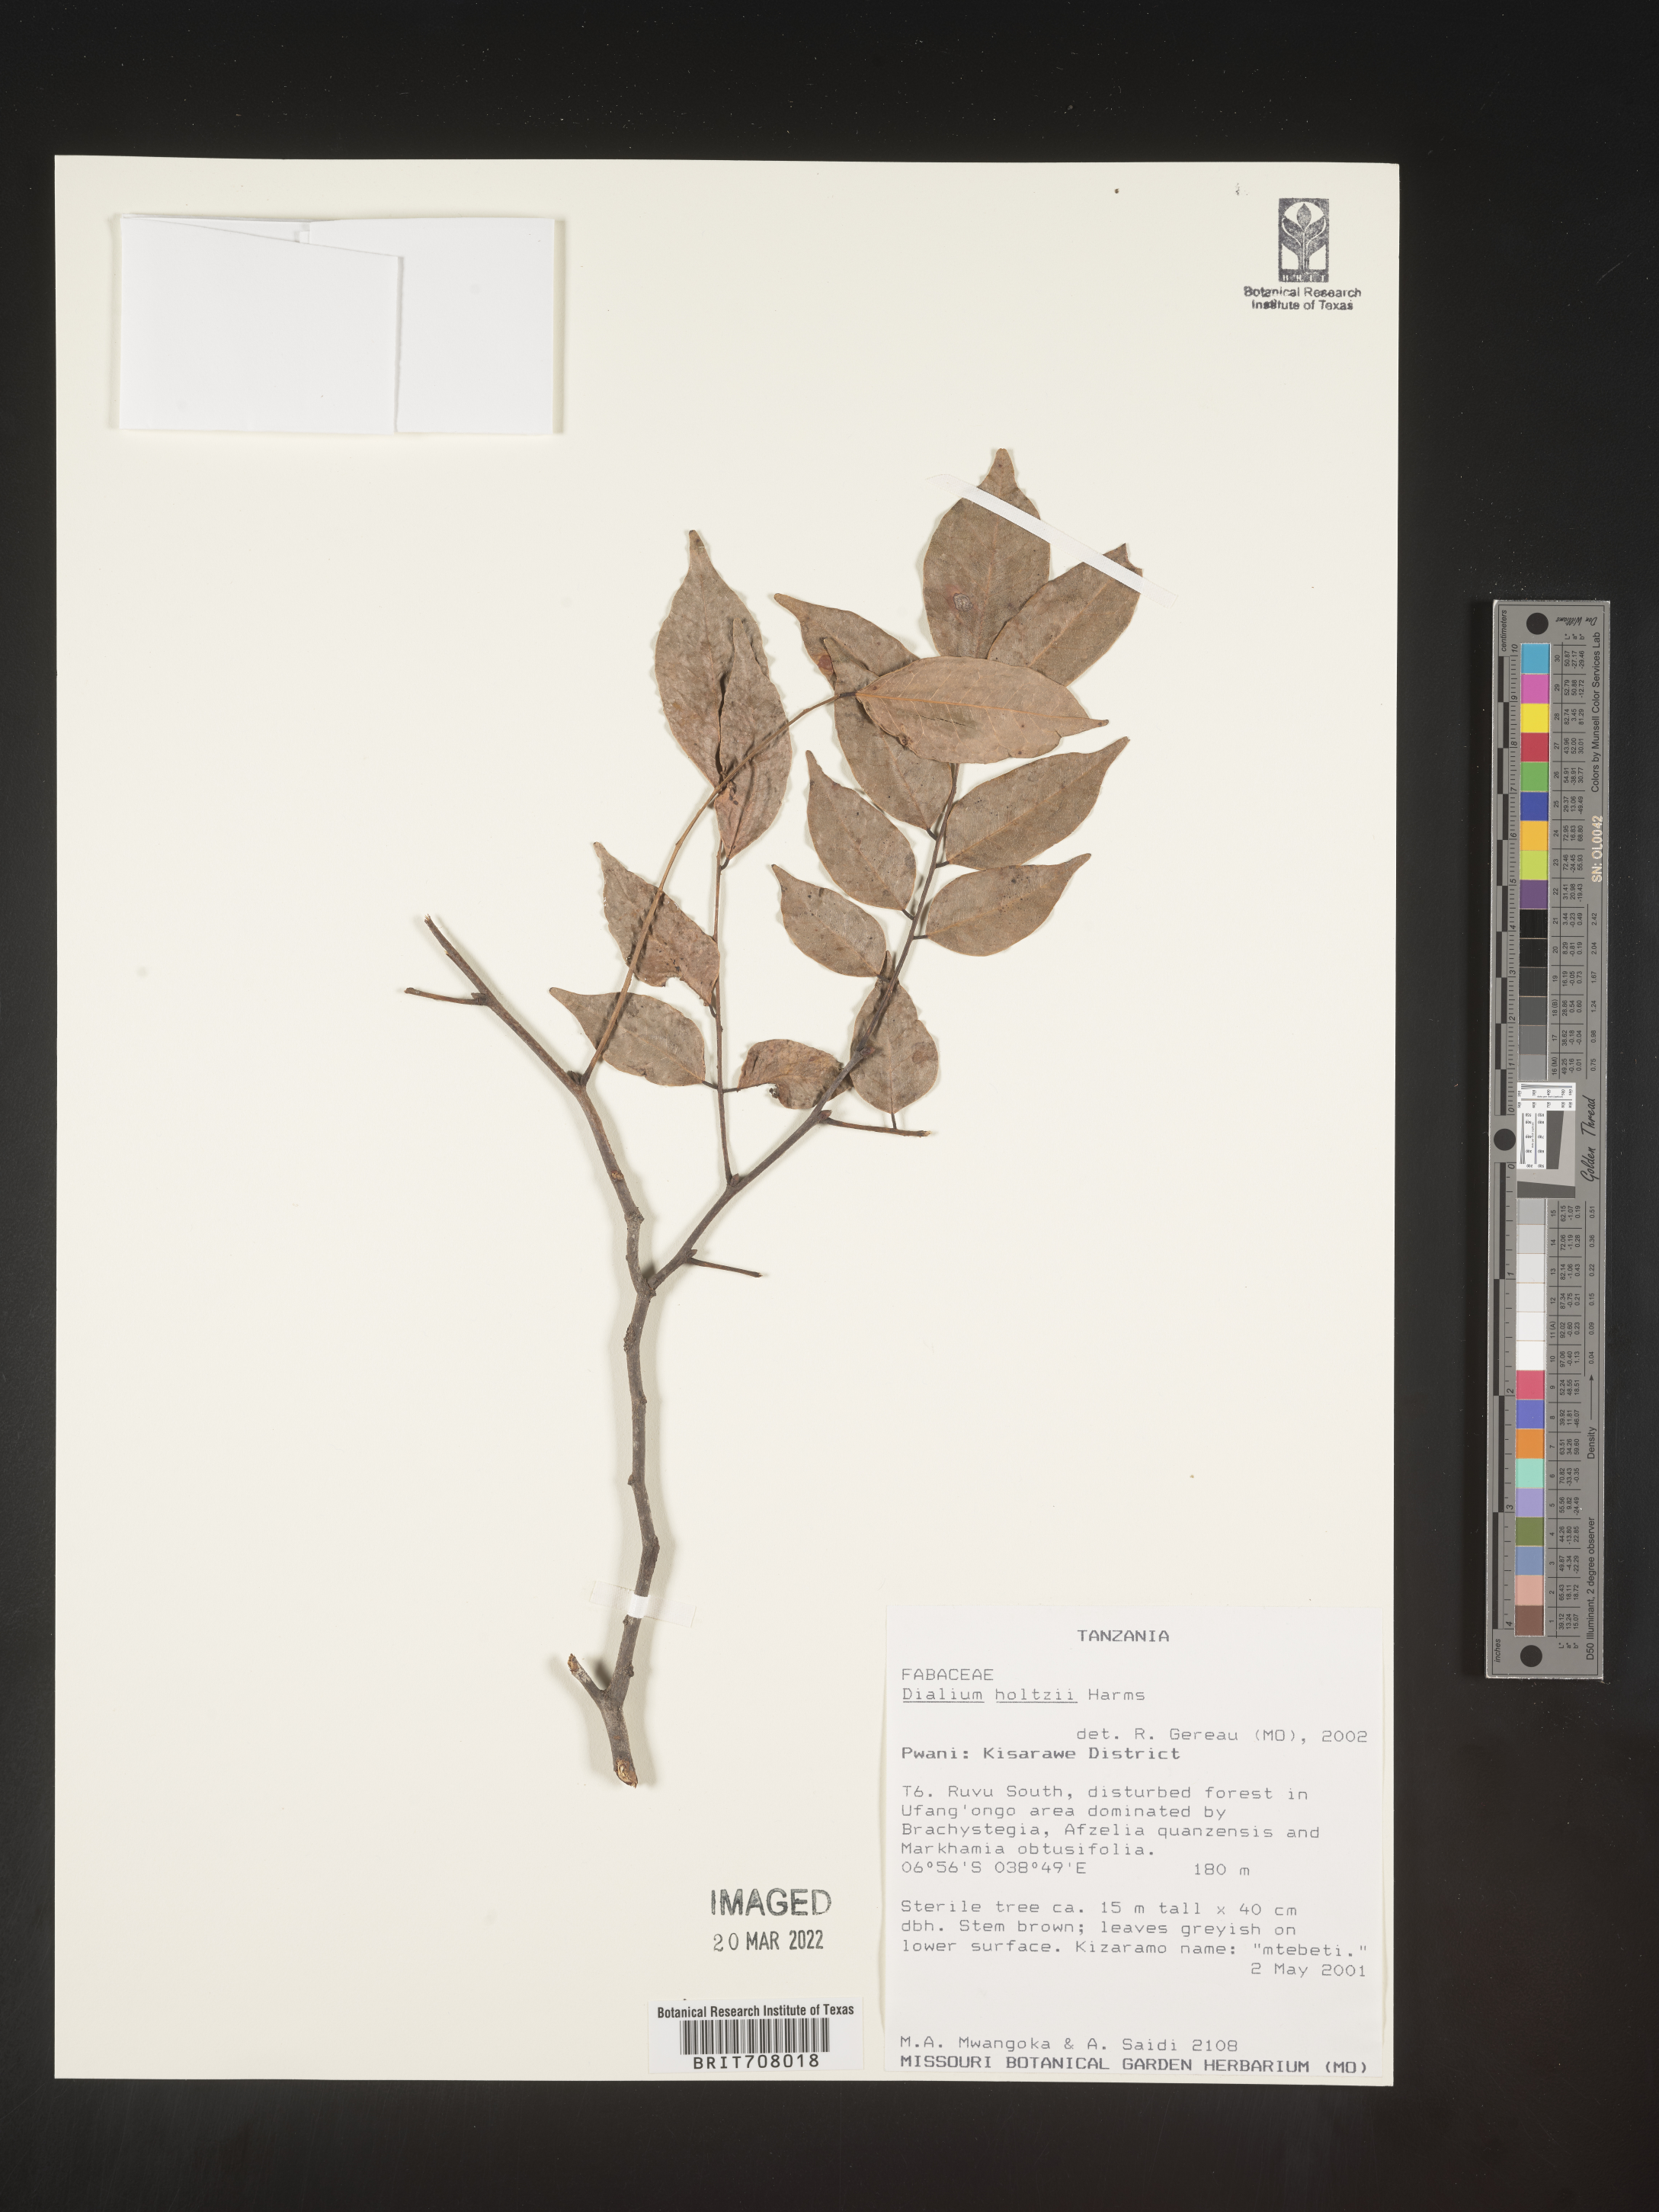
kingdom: Plantae
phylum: Tracheophyta
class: Magnoliopsida
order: Fabales
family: Fabaceae
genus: Dialium
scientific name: Dialium
